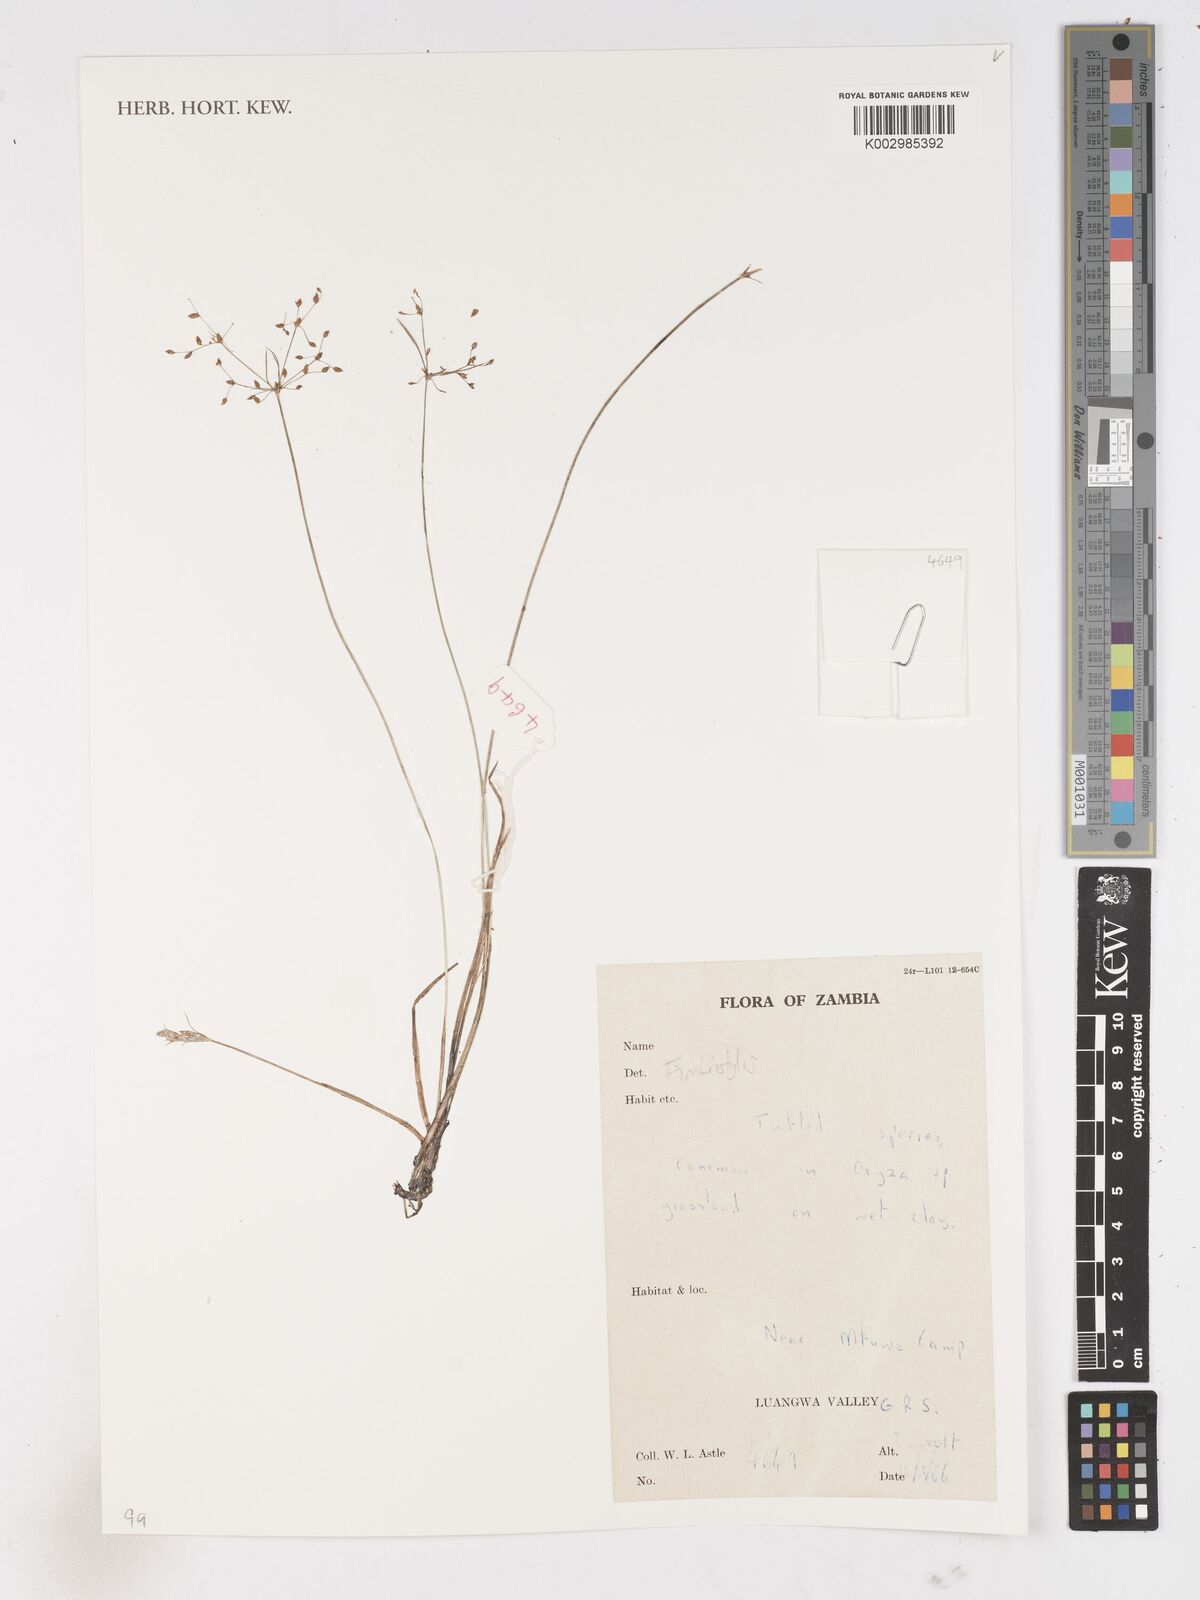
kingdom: Plantae
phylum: Tracheophyta
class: Liliopsida
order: Poales
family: Cyperaceae
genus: Fimbristylis
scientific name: Fimbristylis
